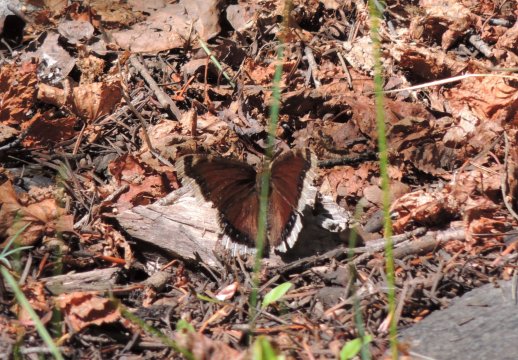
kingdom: Animalia
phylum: Arthropoda
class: Insecta
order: Lepidoptera
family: Nymphalidae
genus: Nymphalis
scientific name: Nymphalis antiopa
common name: Mourning Cloak
